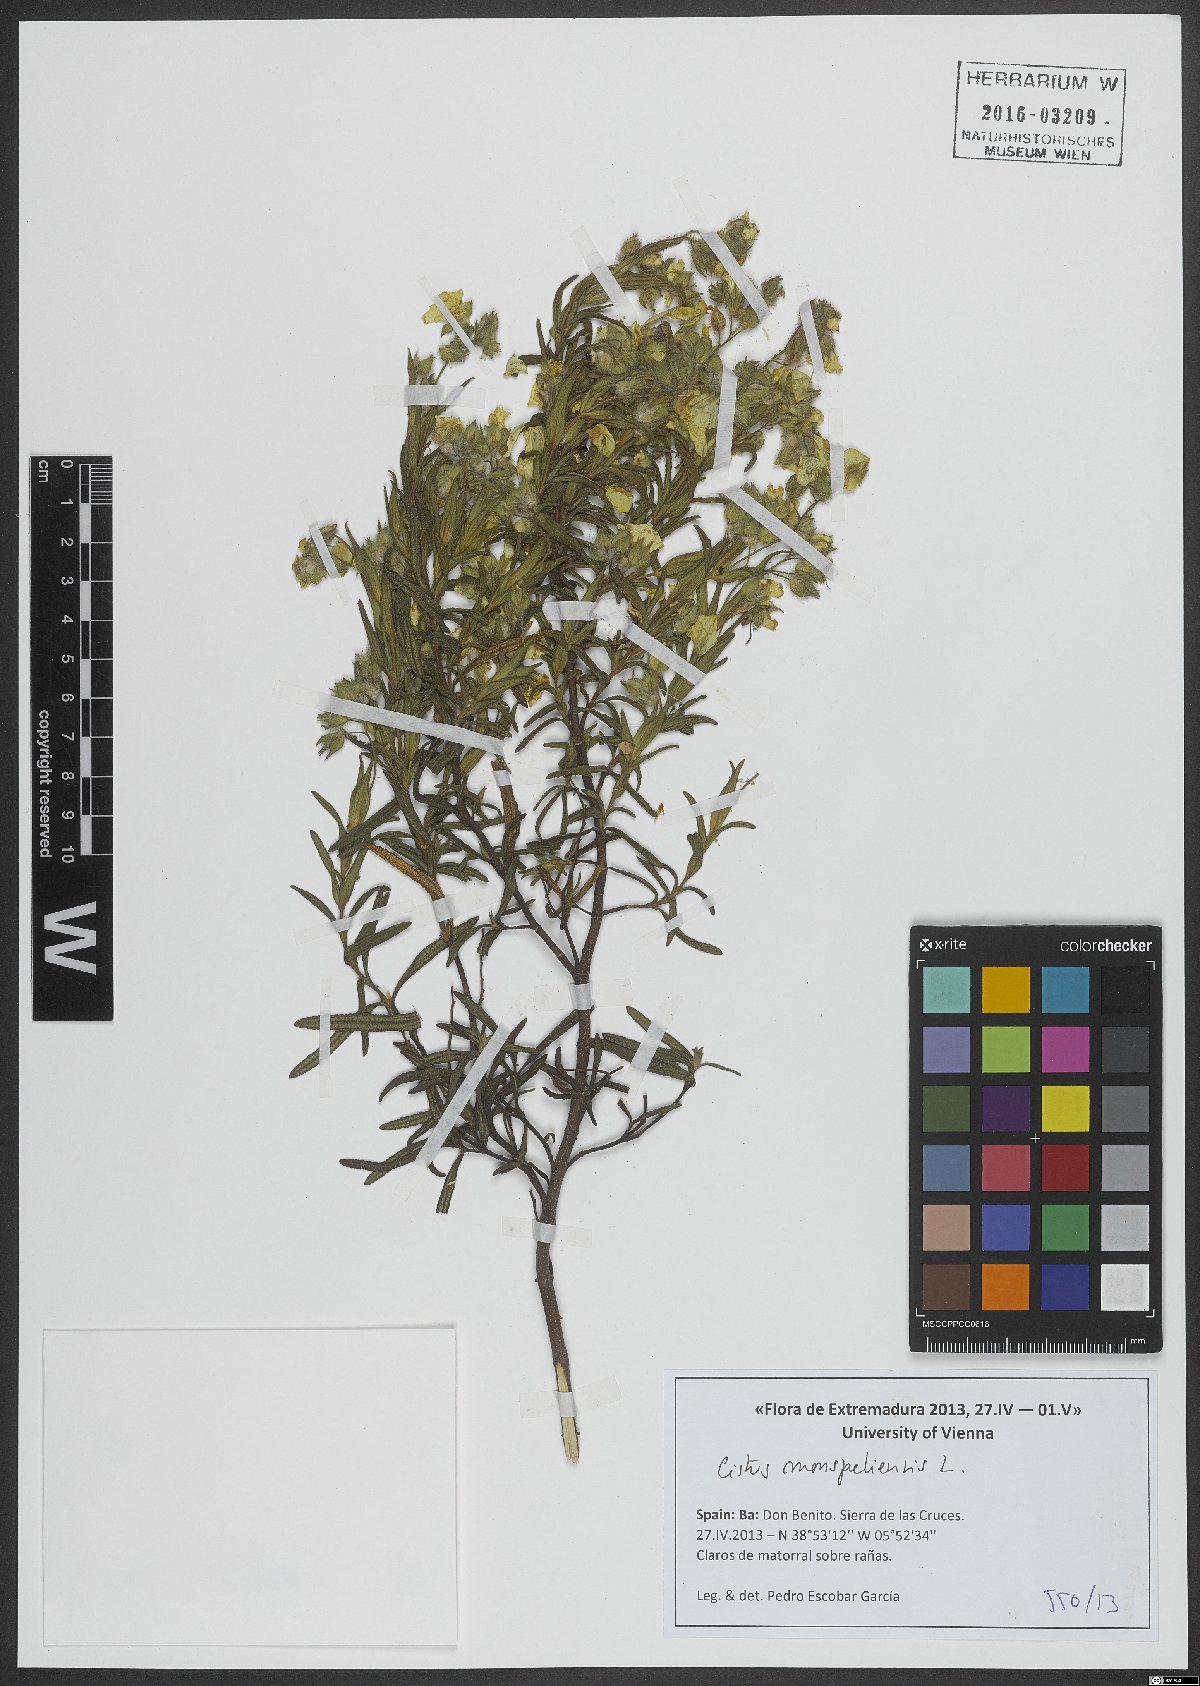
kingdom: Plantae
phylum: Tracheophyta
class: Magnoliopsida
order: Malvales
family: Cistaceae
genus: Cistus
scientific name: Cistus monspeliensis
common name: Montpelier cistus
